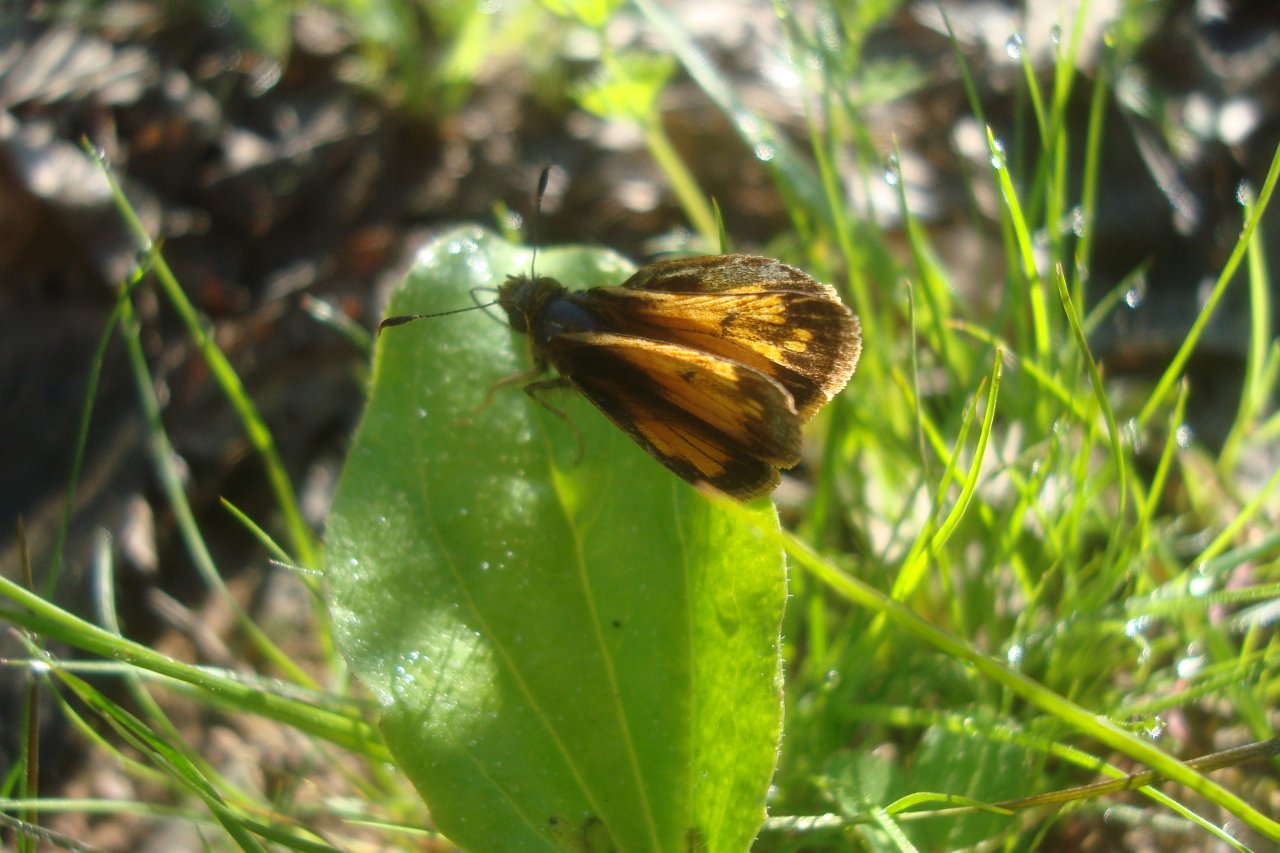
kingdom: Animalia
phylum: Arthropoda
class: Insecta
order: Lepidoptera
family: Hesperiidae
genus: Lon
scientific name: Lon hobomok
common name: Hobomok Skipper
